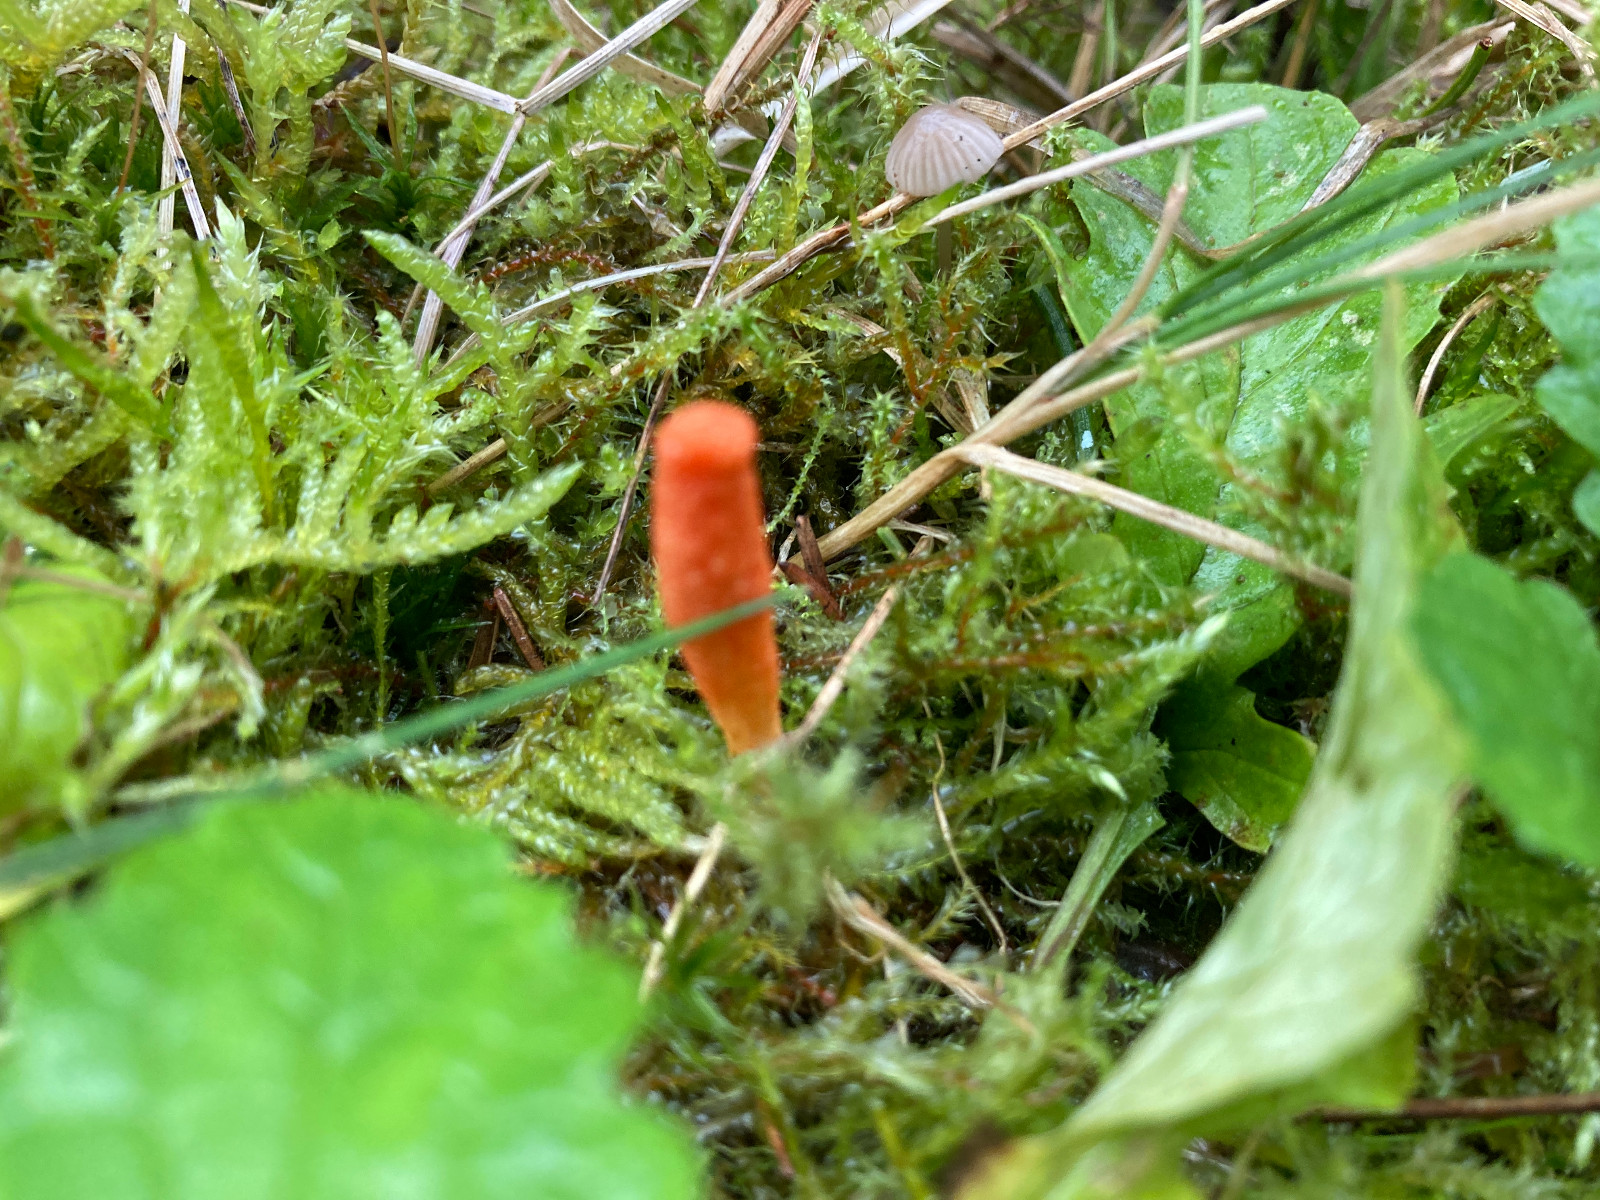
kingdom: Fungi
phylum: Ascomycota
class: Sordariomycetes
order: Hypocreales
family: Cordycipitaceae
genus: Cordyceps
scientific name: Cordyceps militaris
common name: puppe-snyltekølle
